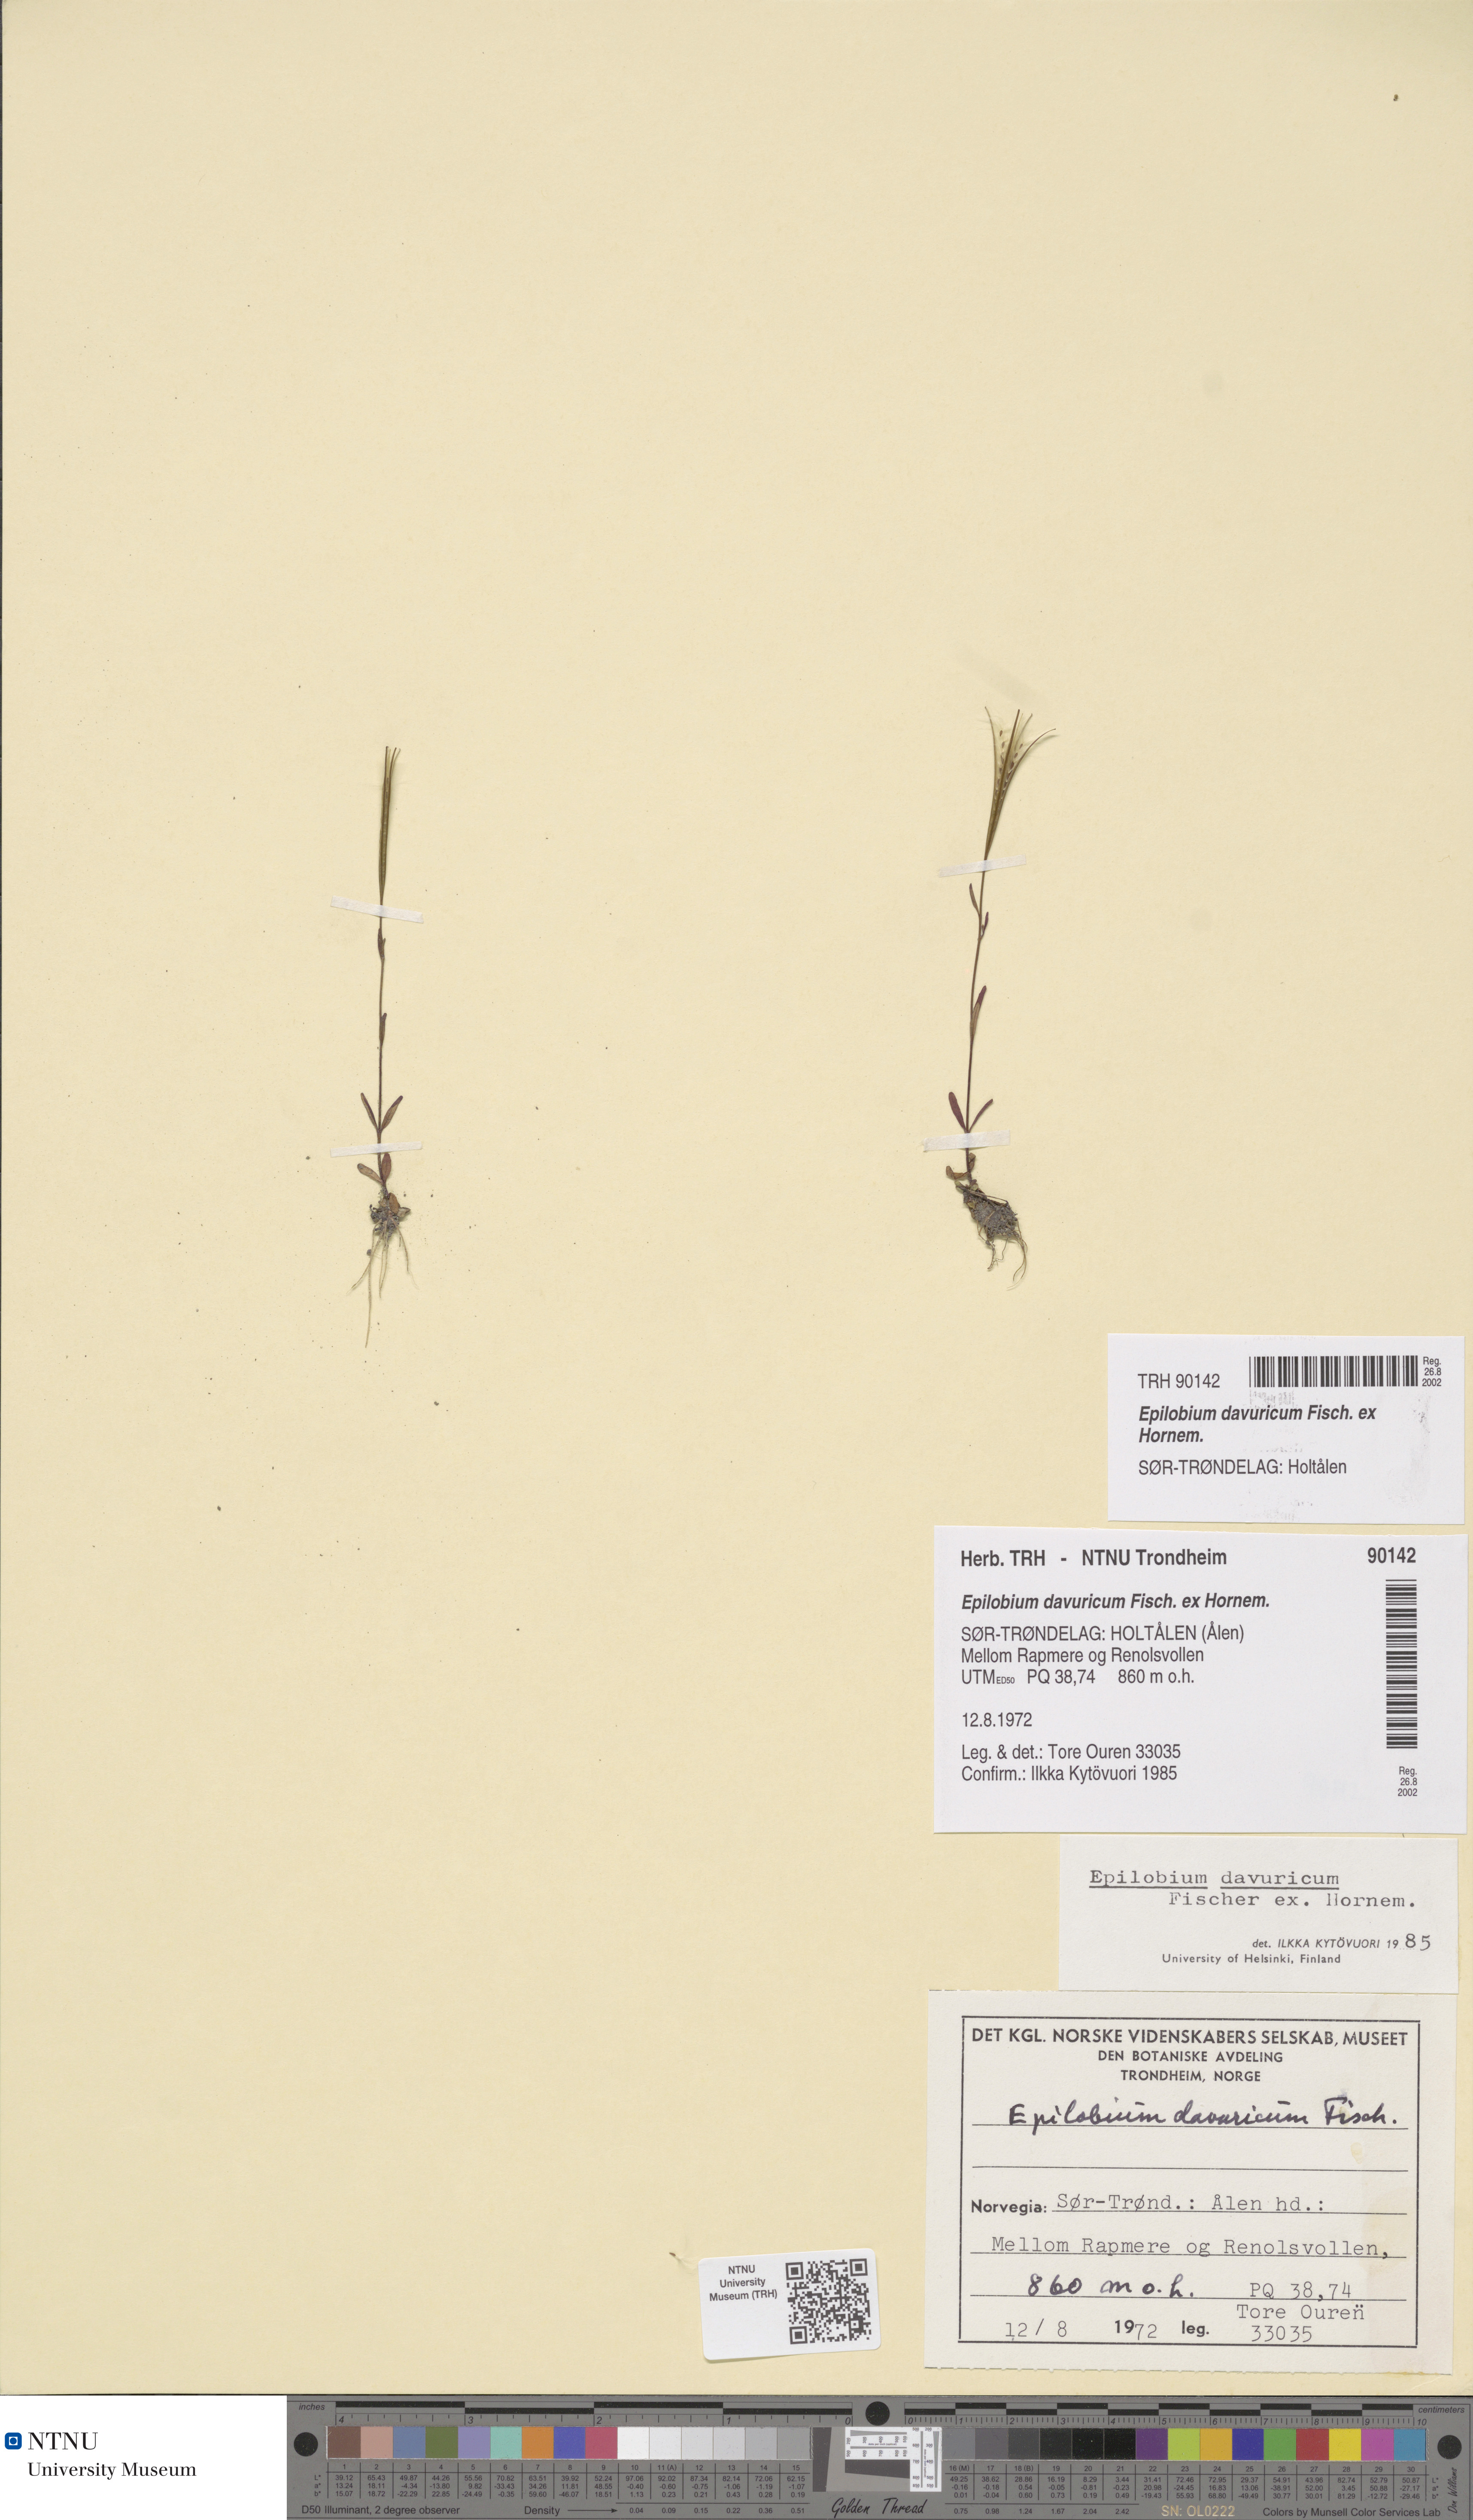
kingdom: Plantae
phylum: Tracheophyta
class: Magnoliopsida
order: Myrtales
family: Onagraceae
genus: Epilobium
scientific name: Epilobium davuricum
